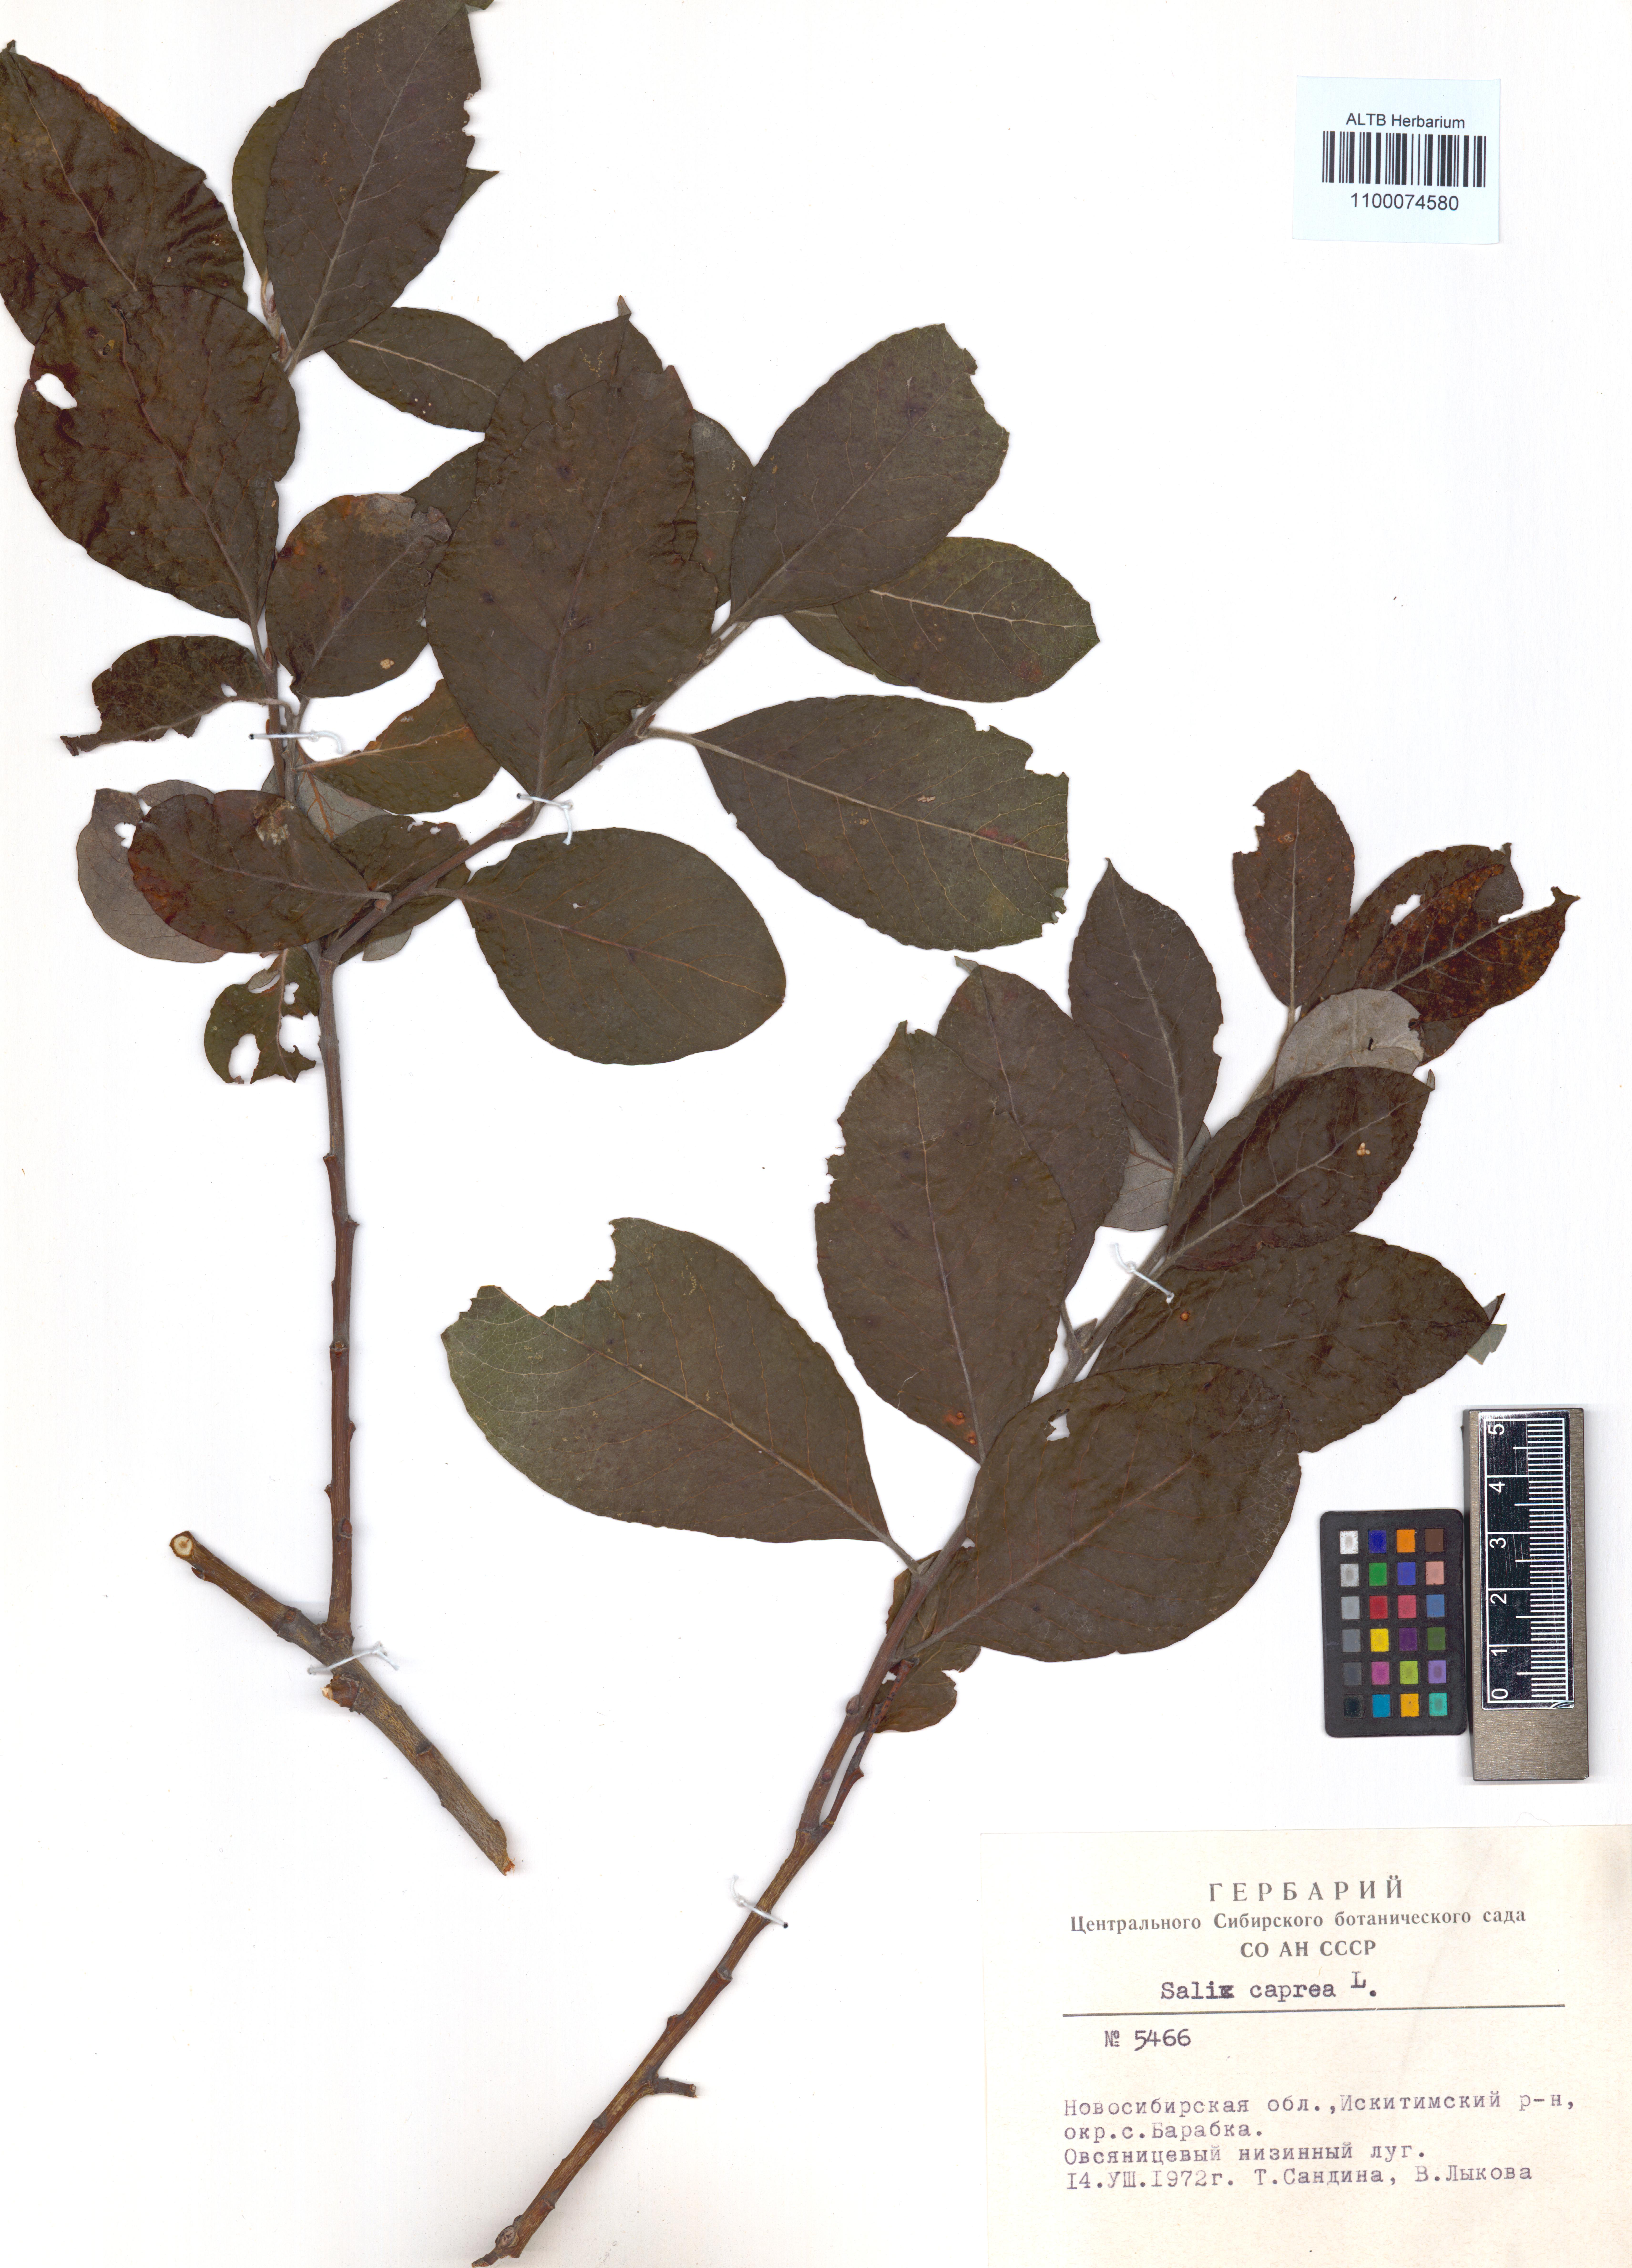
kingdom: Plantae
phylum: Tracheophyta
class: Magnoliopsida
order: Malpighiales
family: Salicaceae
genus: Salix
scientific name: Salix caprea
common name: Goat willow
